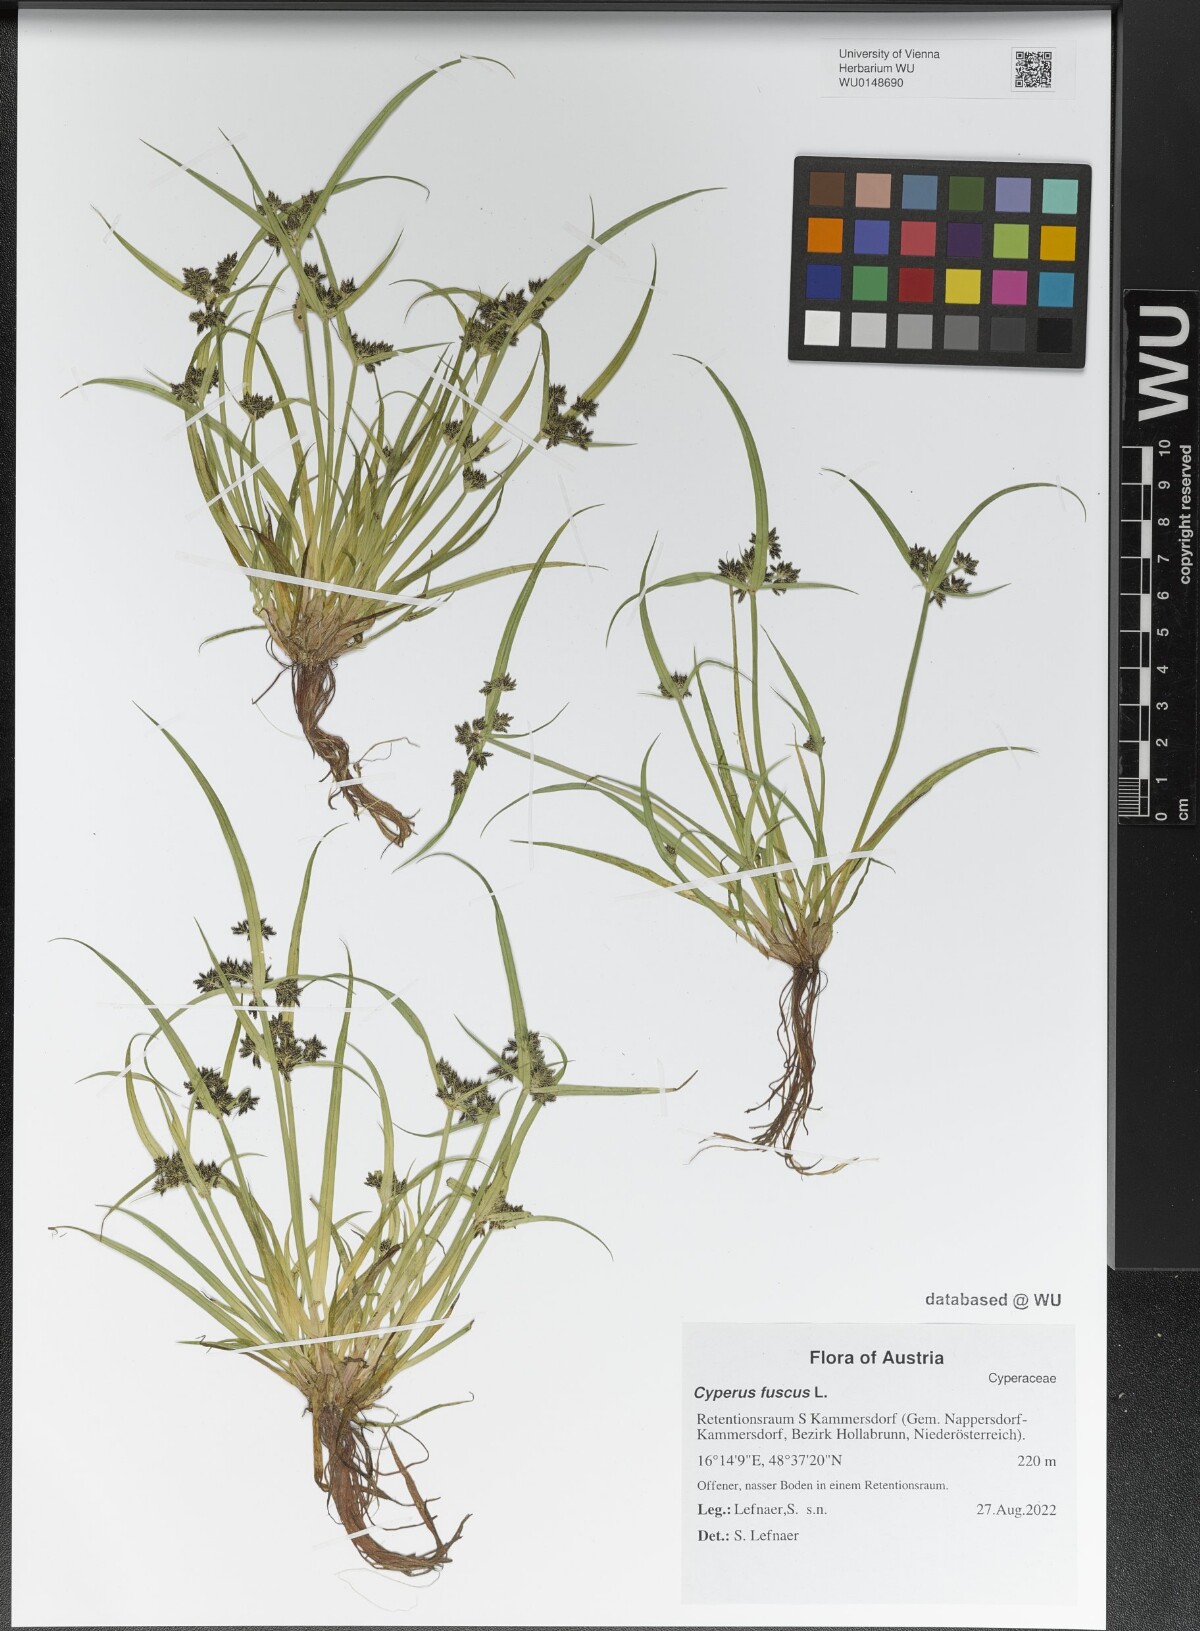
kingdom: Plantae
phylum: Tracheophyta
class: Liliopsida
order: Poales
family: Cyperaceae
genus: Cyperus
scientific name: Cyperus fuscus
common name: Brown galingale
